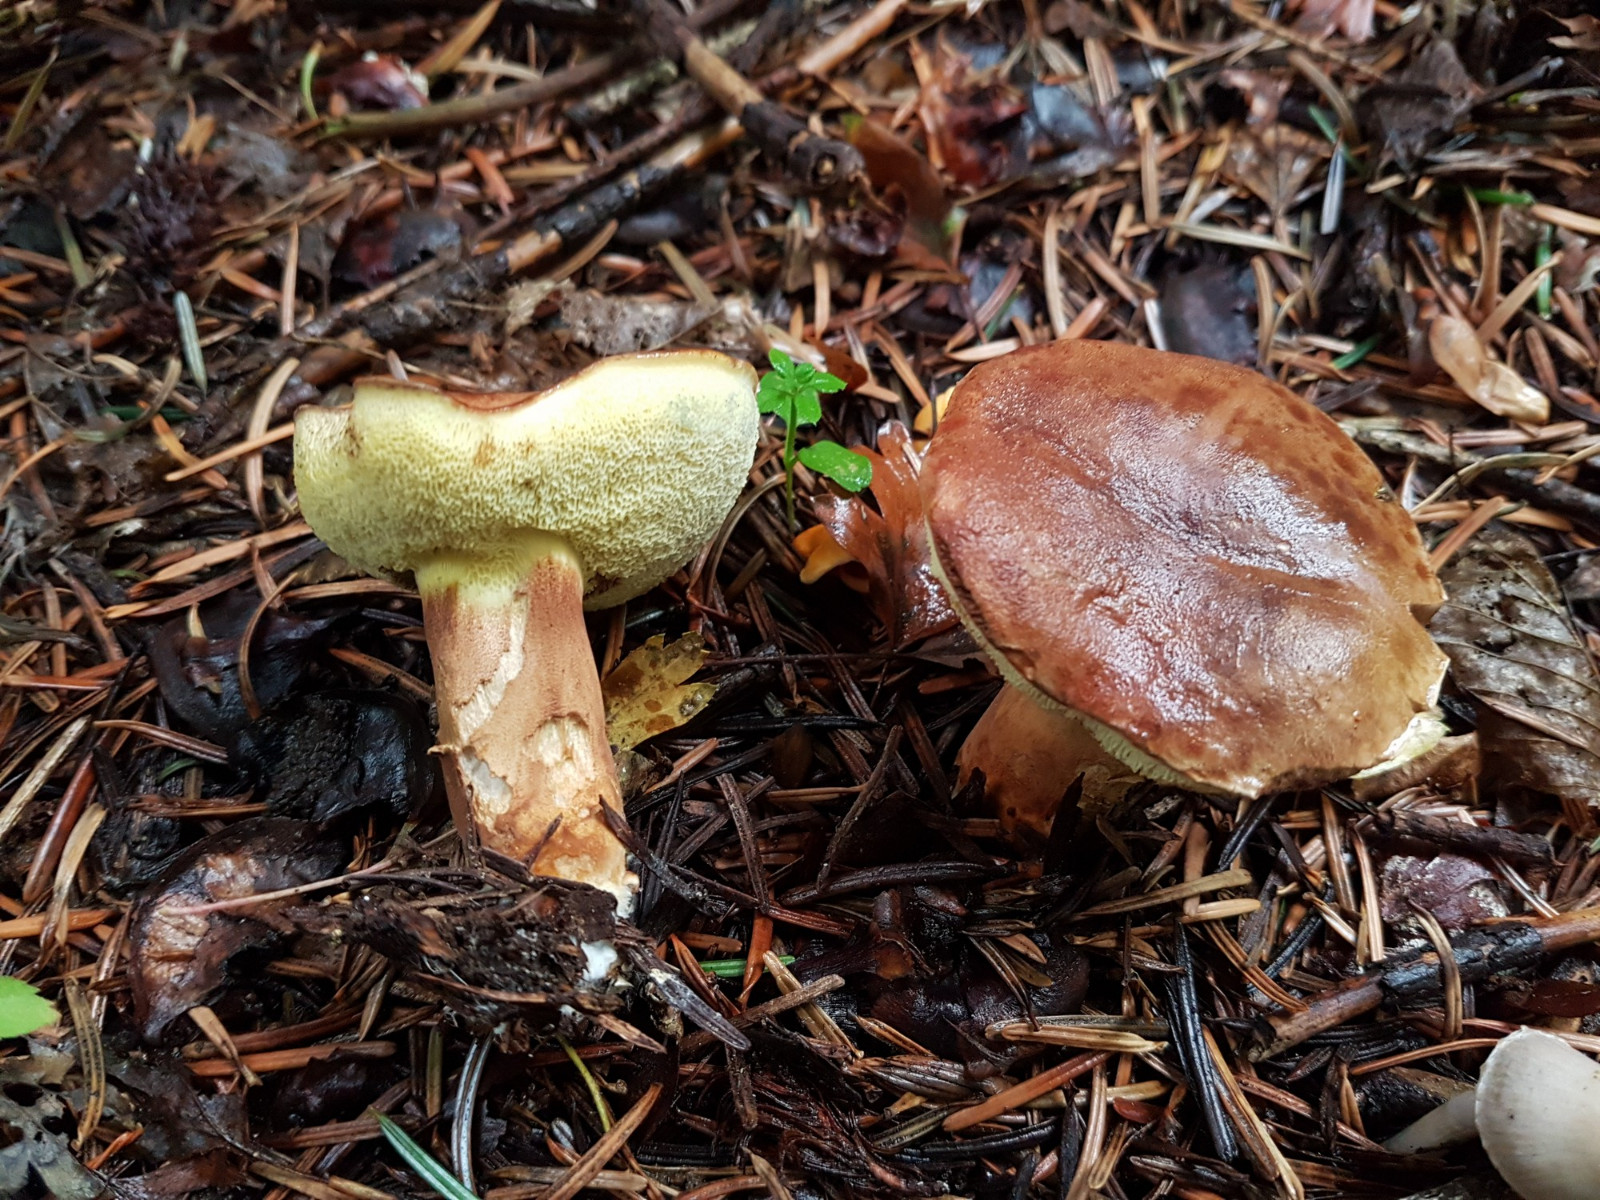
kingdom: Fungi
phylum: Basidiomycota
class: Agaricomycetes
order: Boletales
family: Boletaceae
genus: Imleria
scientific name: Imleria badia
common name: brunstokket rørhat
